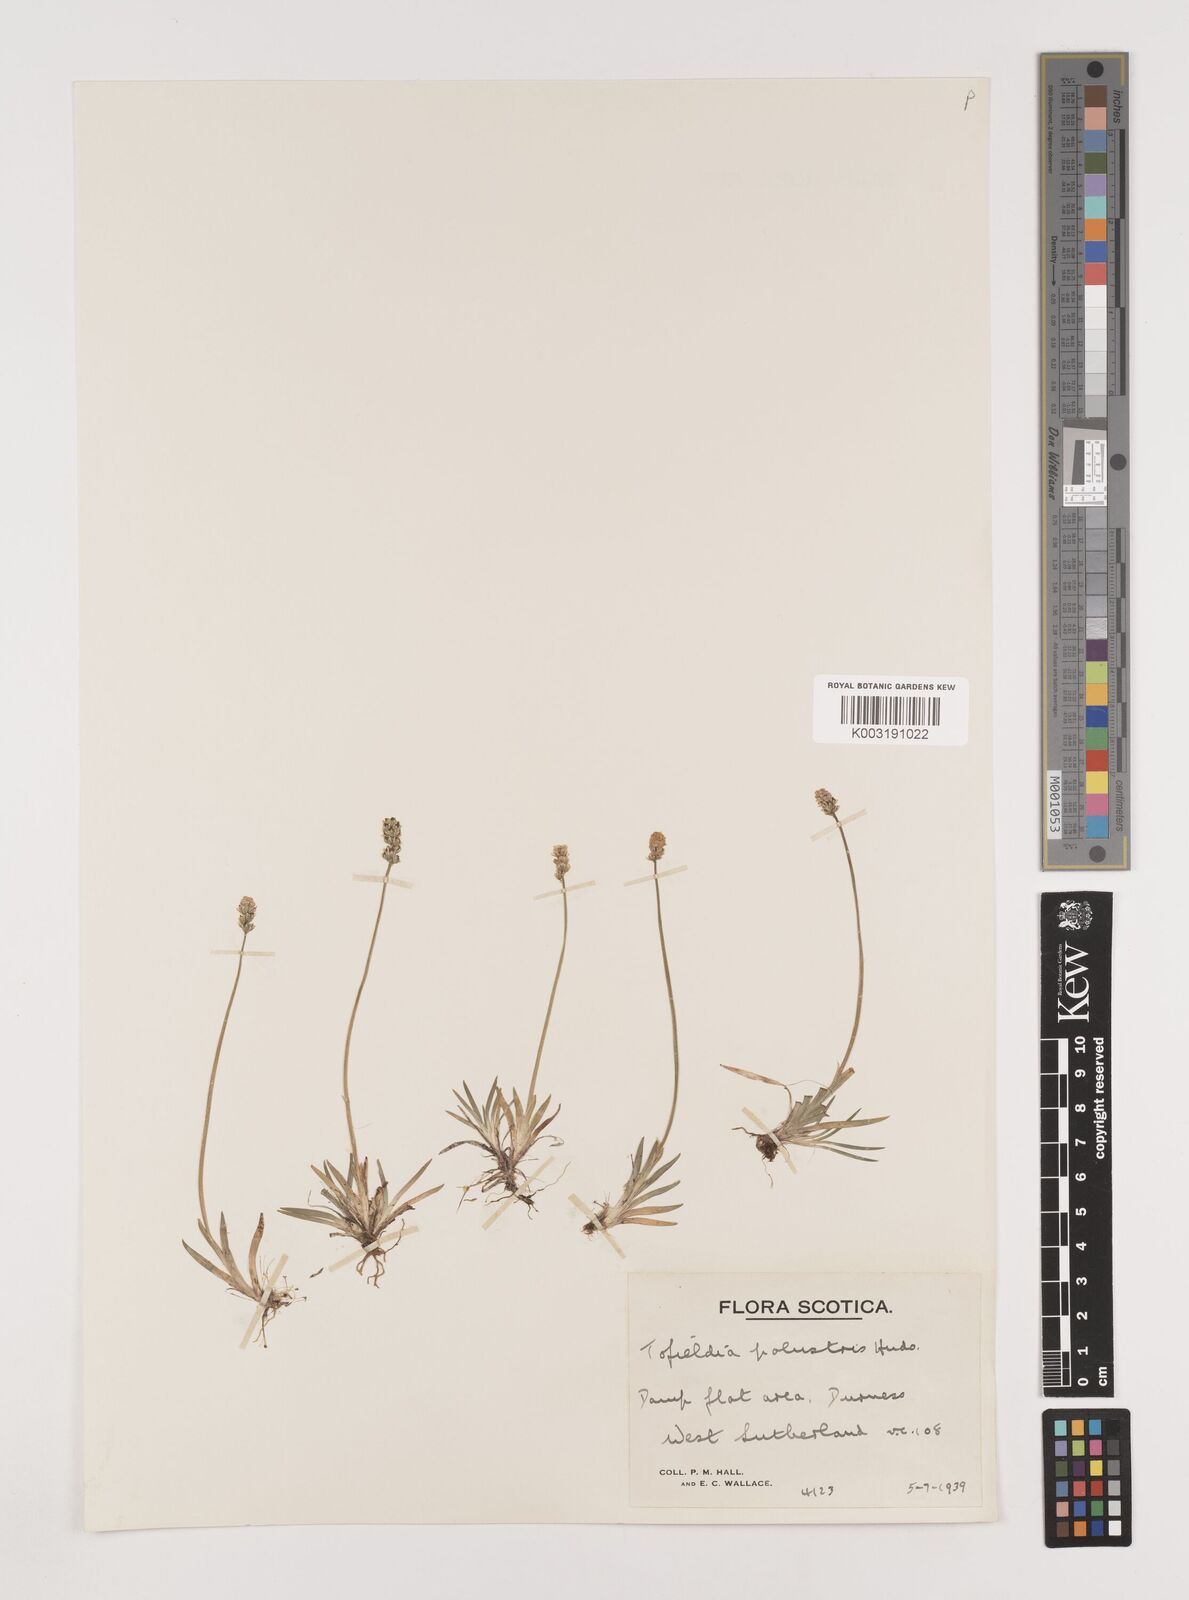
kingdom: Plantae
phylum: Tracheophyta
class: Liliopsida
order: Alismatales
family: Tofieldiaceae
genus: Tofieldia
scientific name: Tofieldia pusilla
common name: Scottish false asphodel
